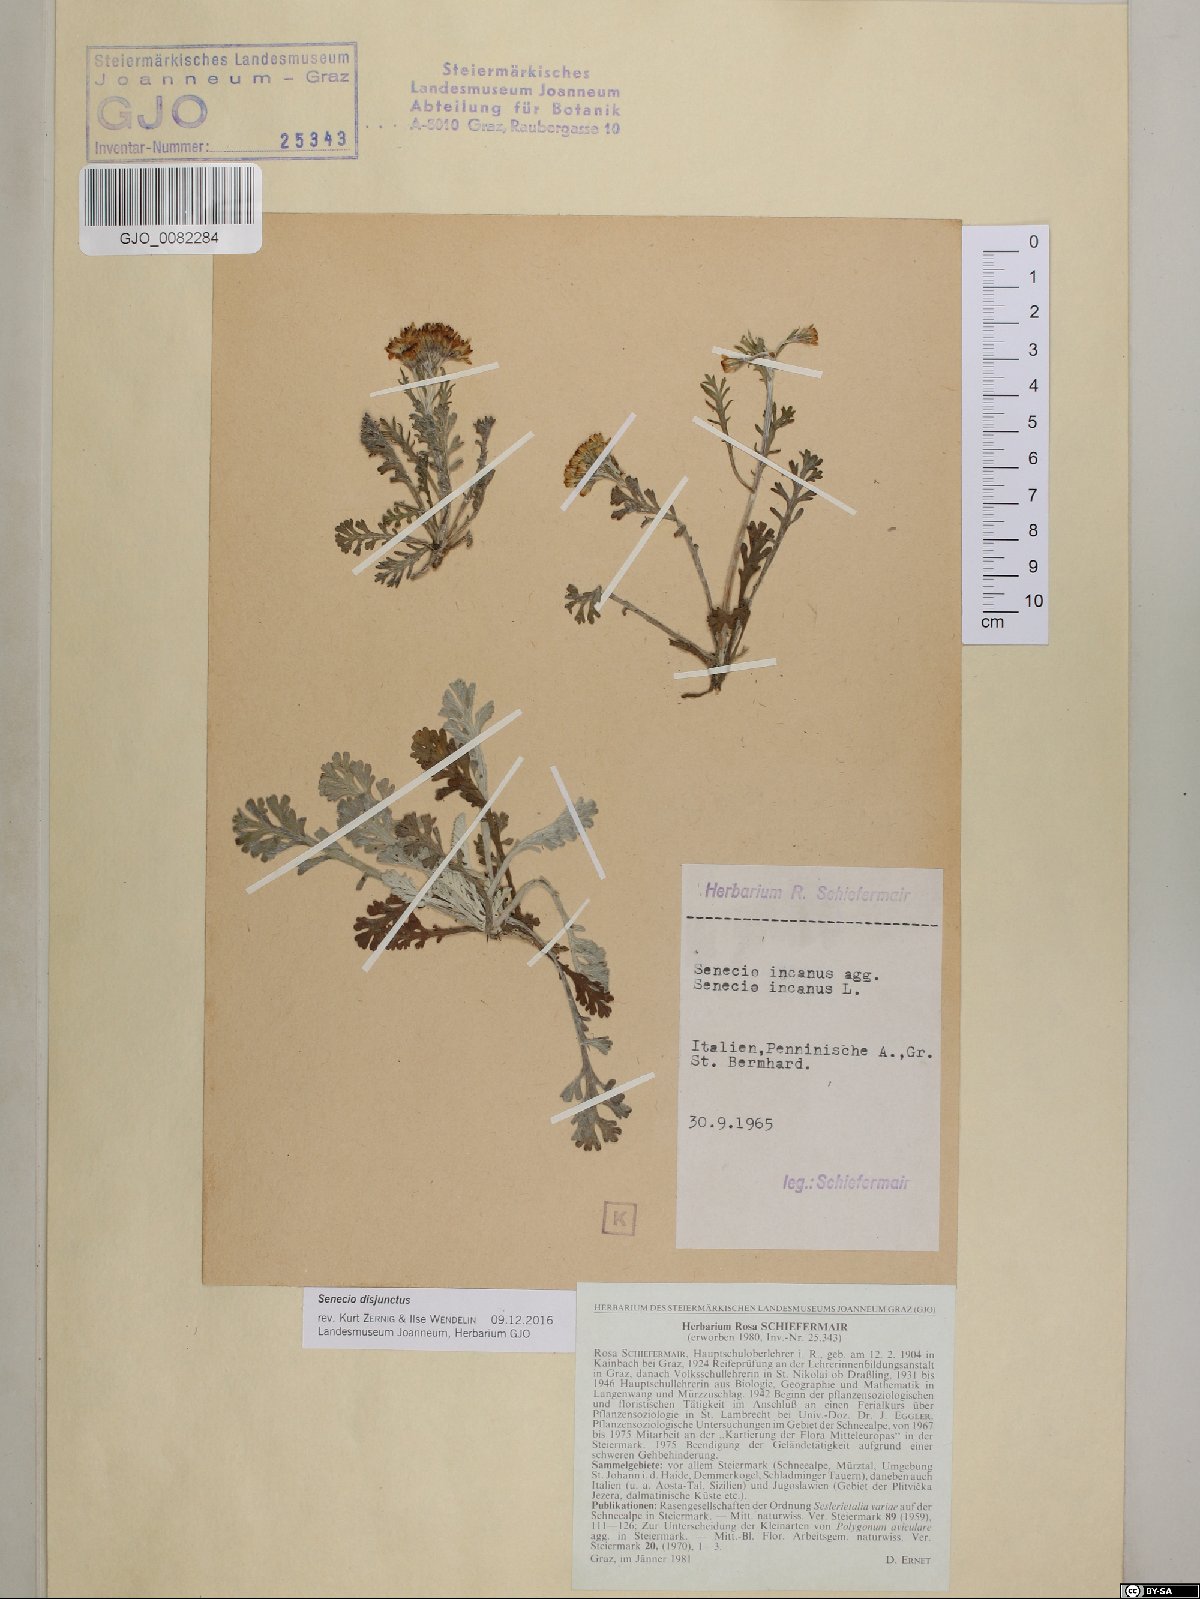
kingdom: Plantae
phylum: Tracheophyta
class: Magnoliopsida
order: Asterales
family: Asteraceae
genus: Jacobaea
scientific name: Jacobaea disjuncta
